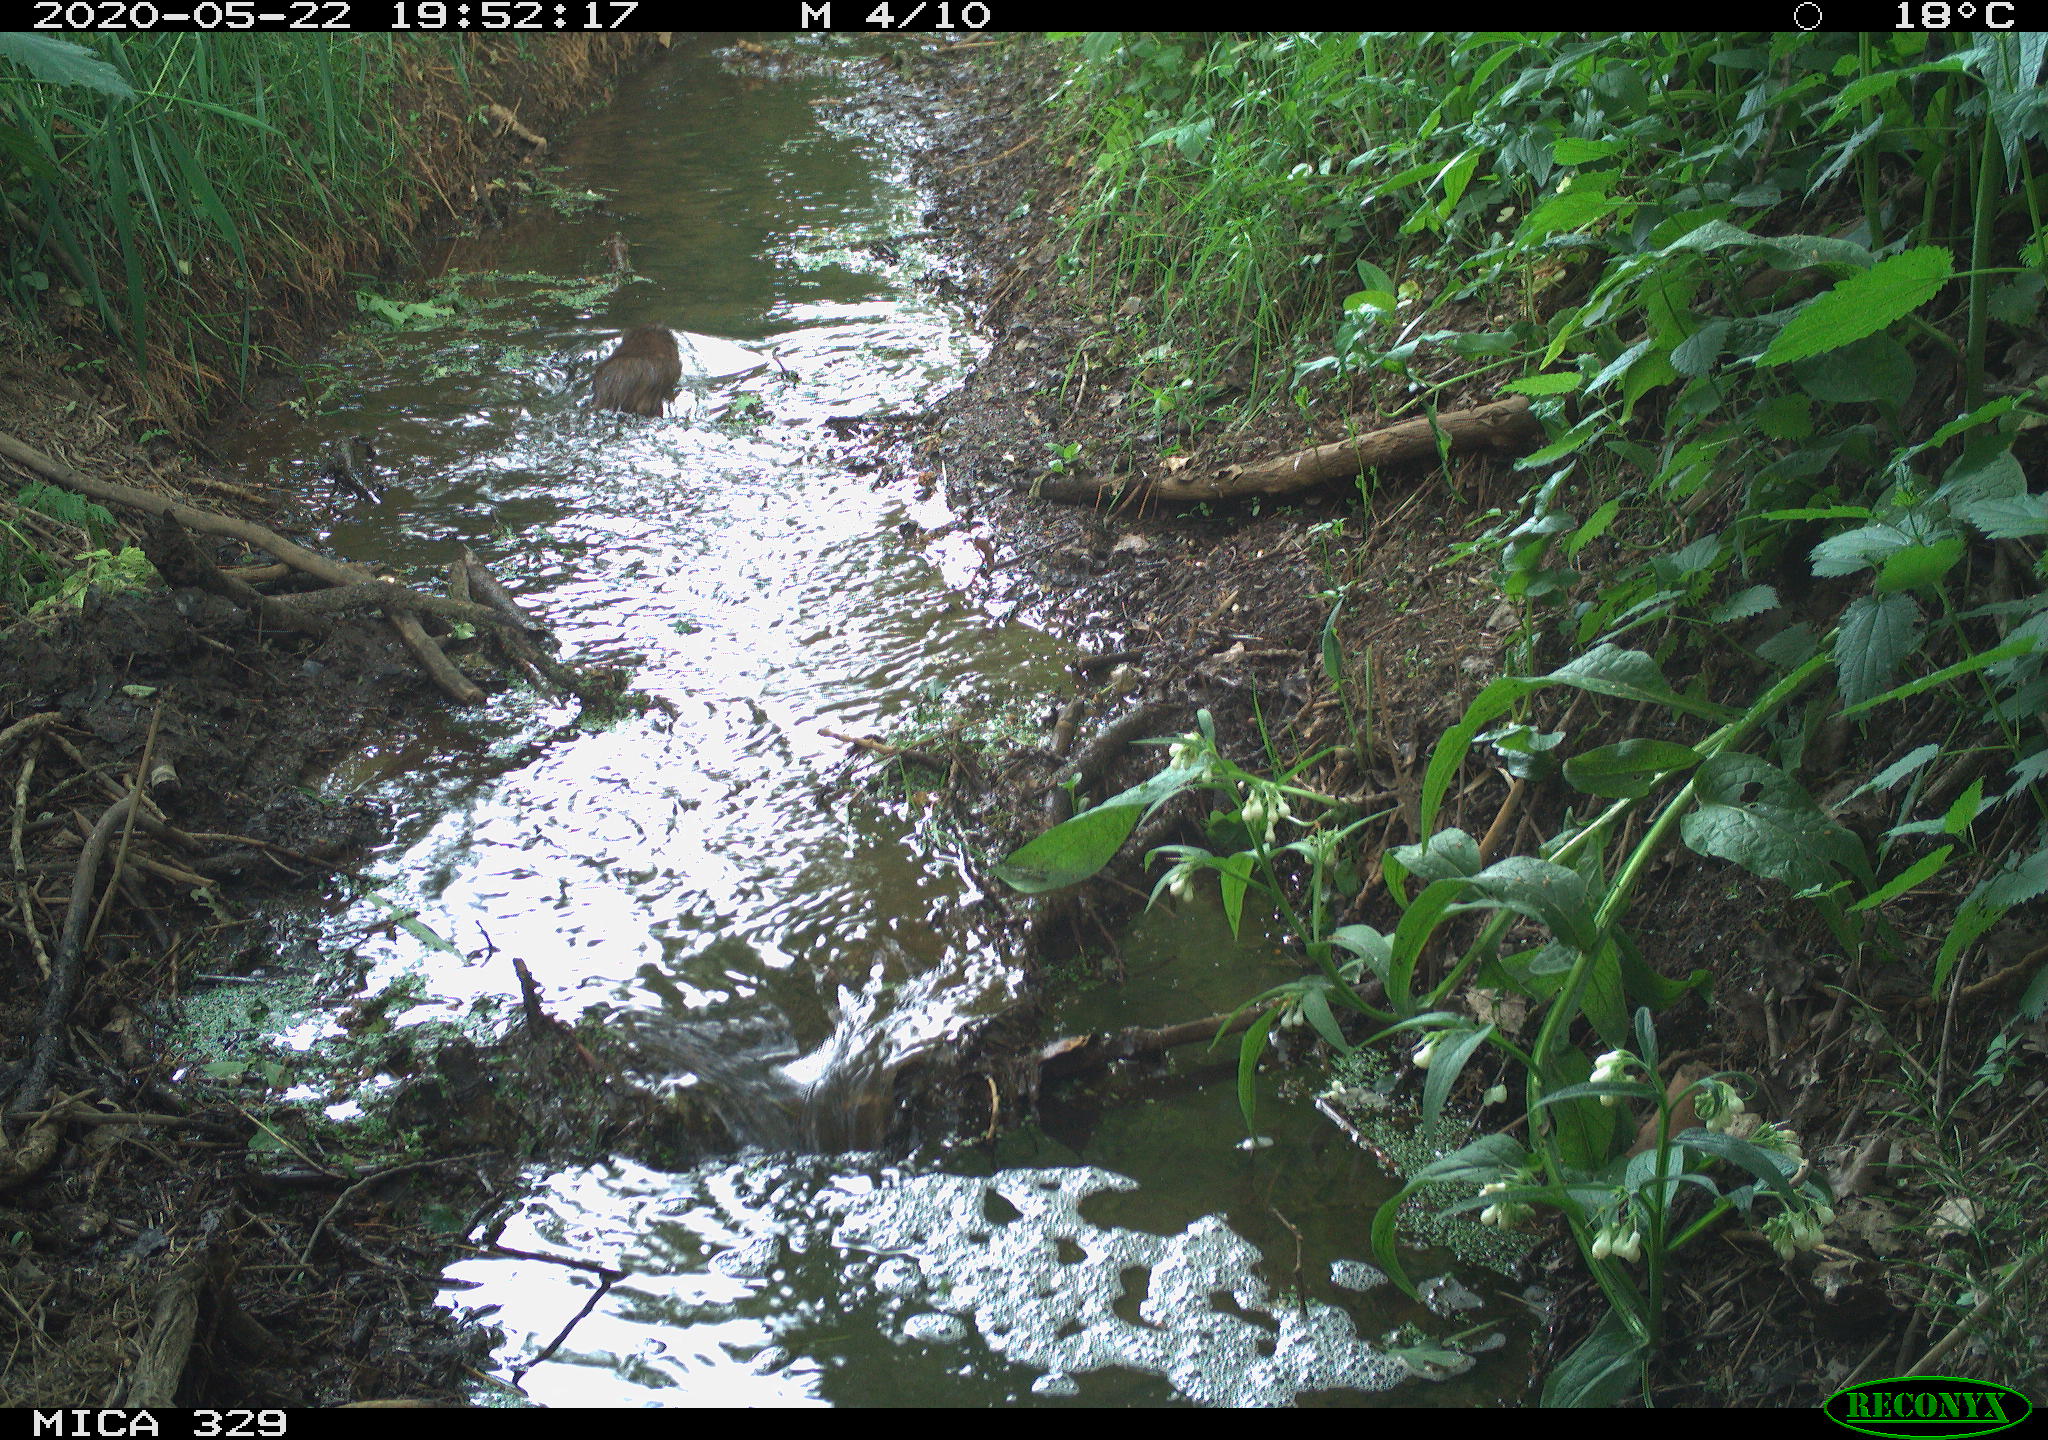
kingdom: Animalia
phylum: Chordata
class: Mammalia
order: Rodentia
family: Myocastoridae
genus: Myocastor
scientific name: Myocastor coypus
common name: Coypu
